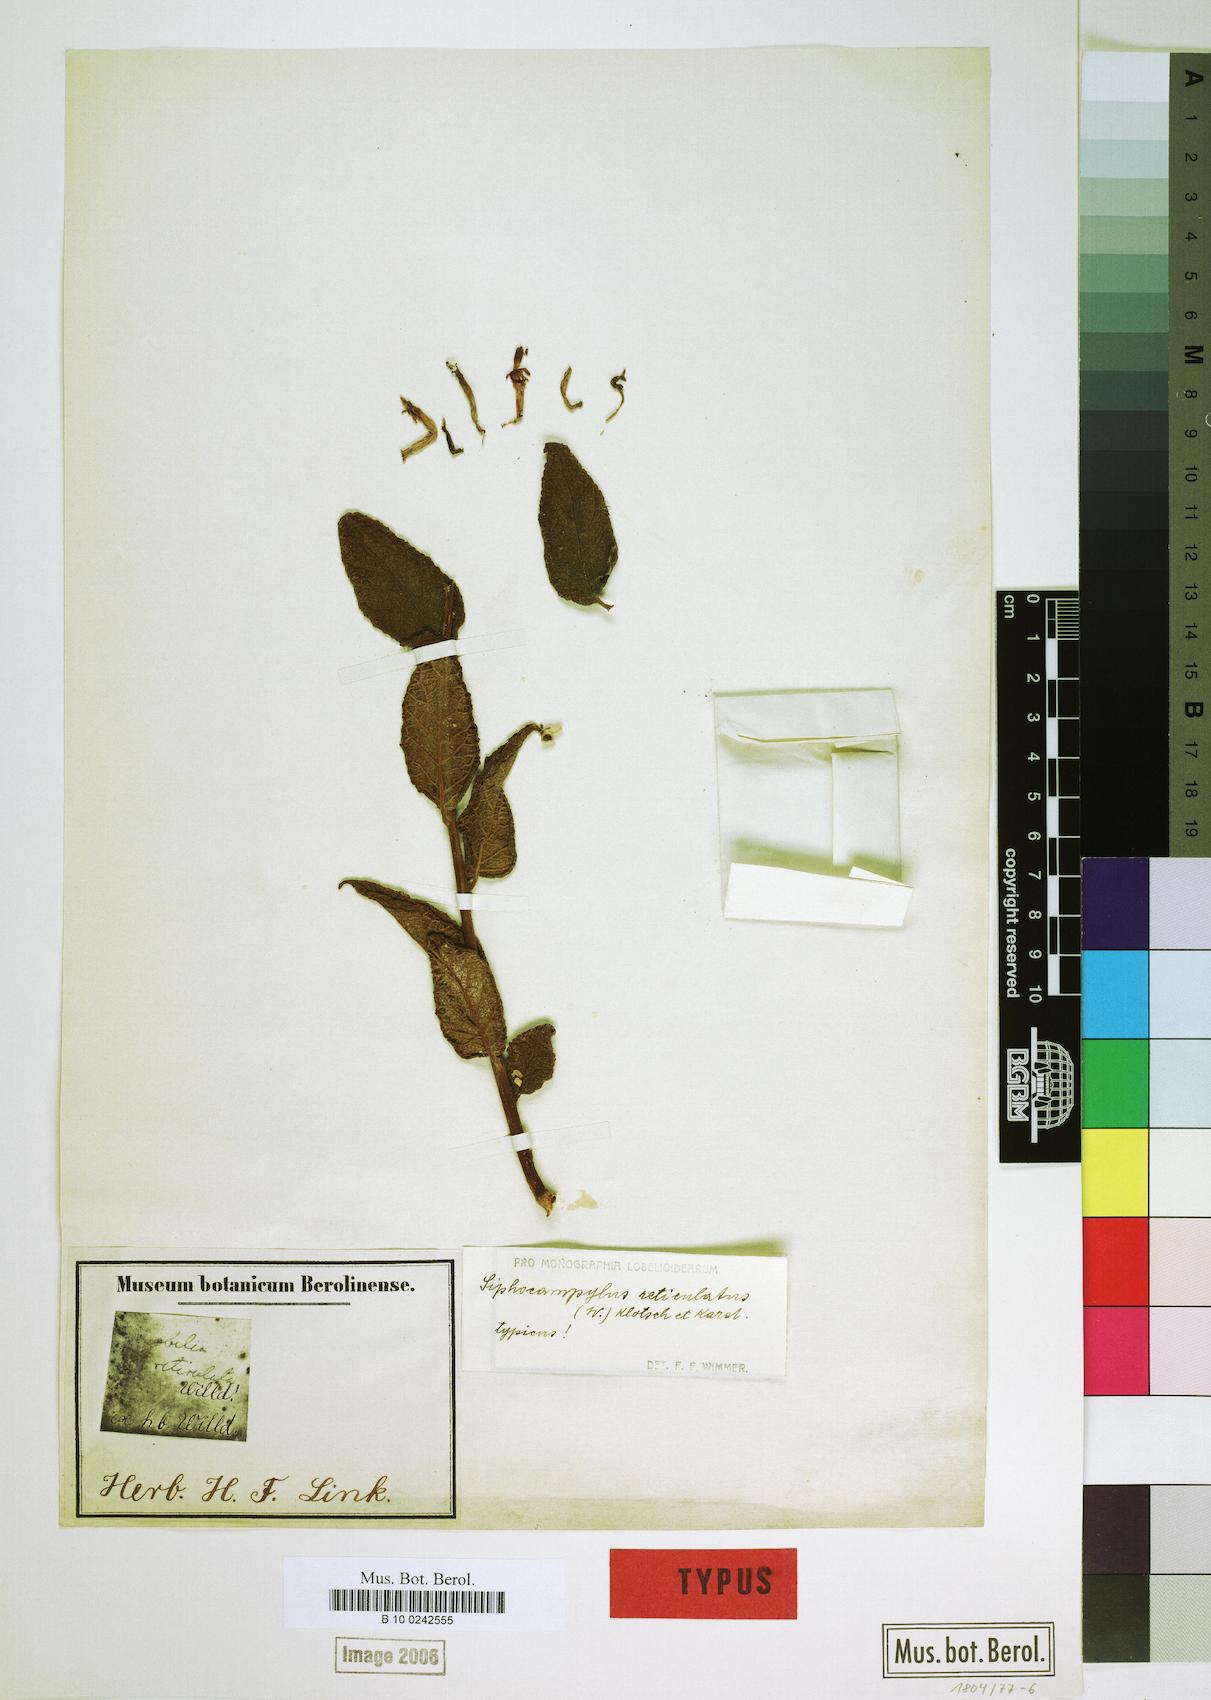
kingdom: Plantae
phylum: Tracheophyta
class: Magnoliopsida
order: Asterales
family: Campanulaceae
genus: Siphocampylus
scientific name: Siphocampylus reticulatus
